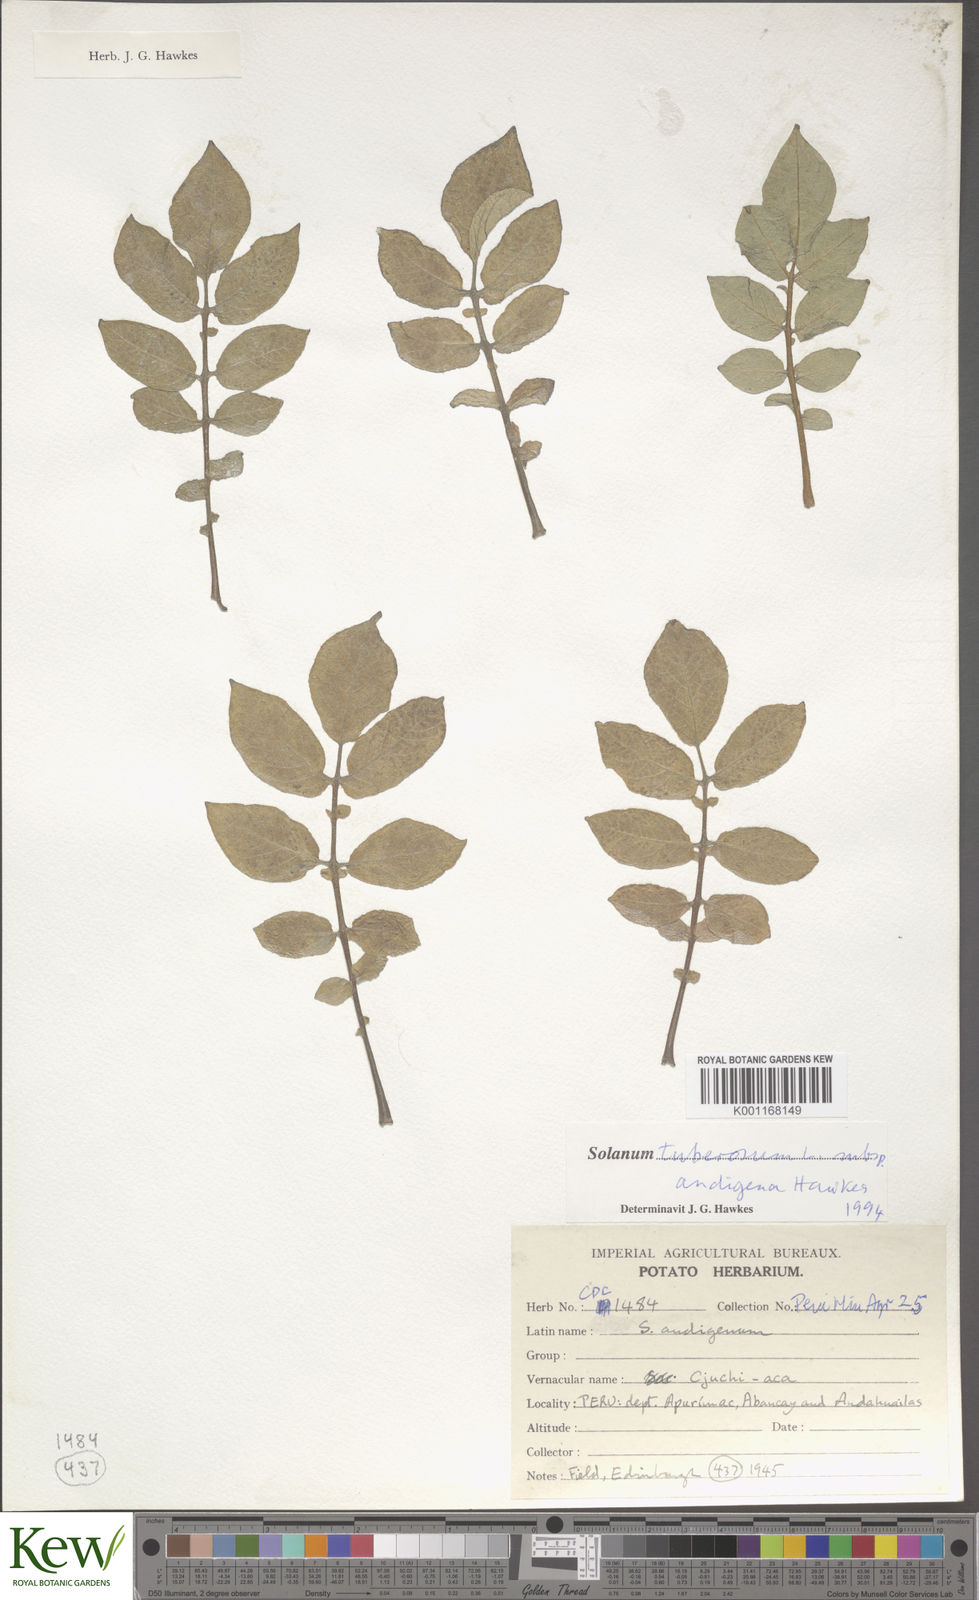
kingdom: Plantae
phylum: Tracheophyta
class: Magnoliopsida
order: Solanales
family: Solanaceae
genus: Solanum
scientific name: Solanum tuberosum
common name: Potato
